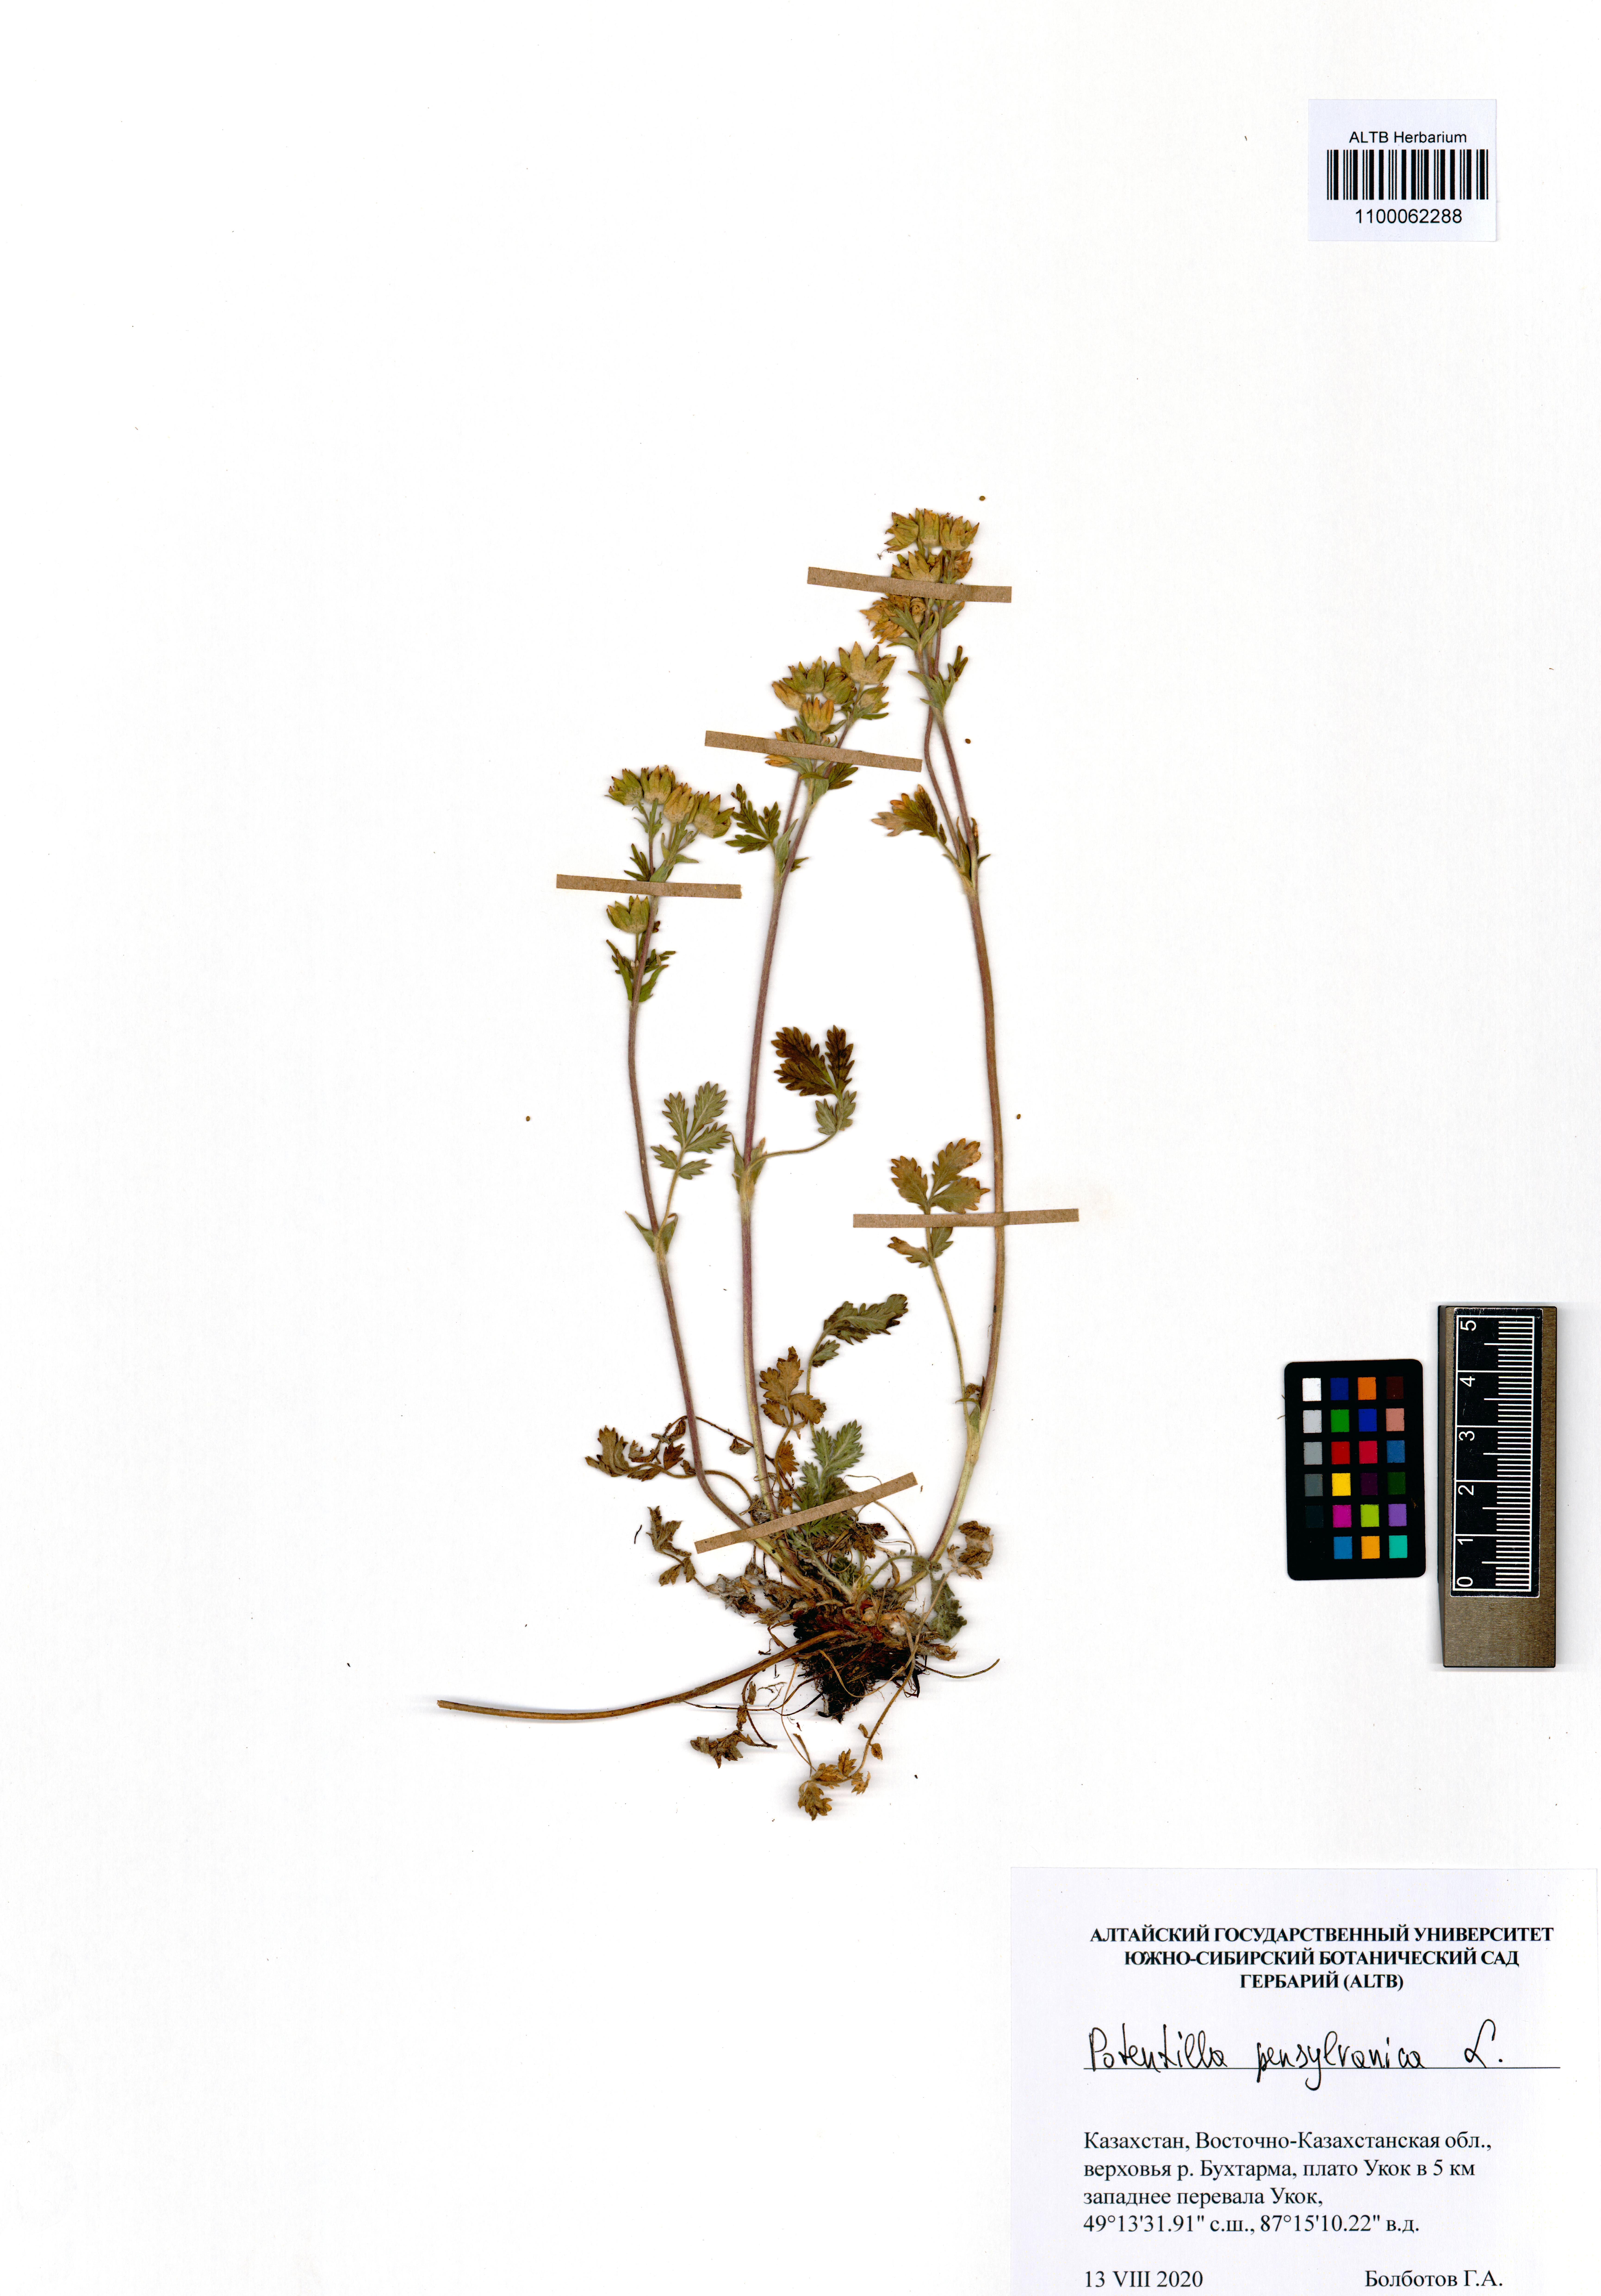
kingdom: Plantae
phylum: Tracheophyta
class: Magnoliopsida
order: Rosales
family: Rosaceae
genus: Potentilla
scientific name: Potentilla pensylvanica
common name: Pennsylvania cinquefoil
